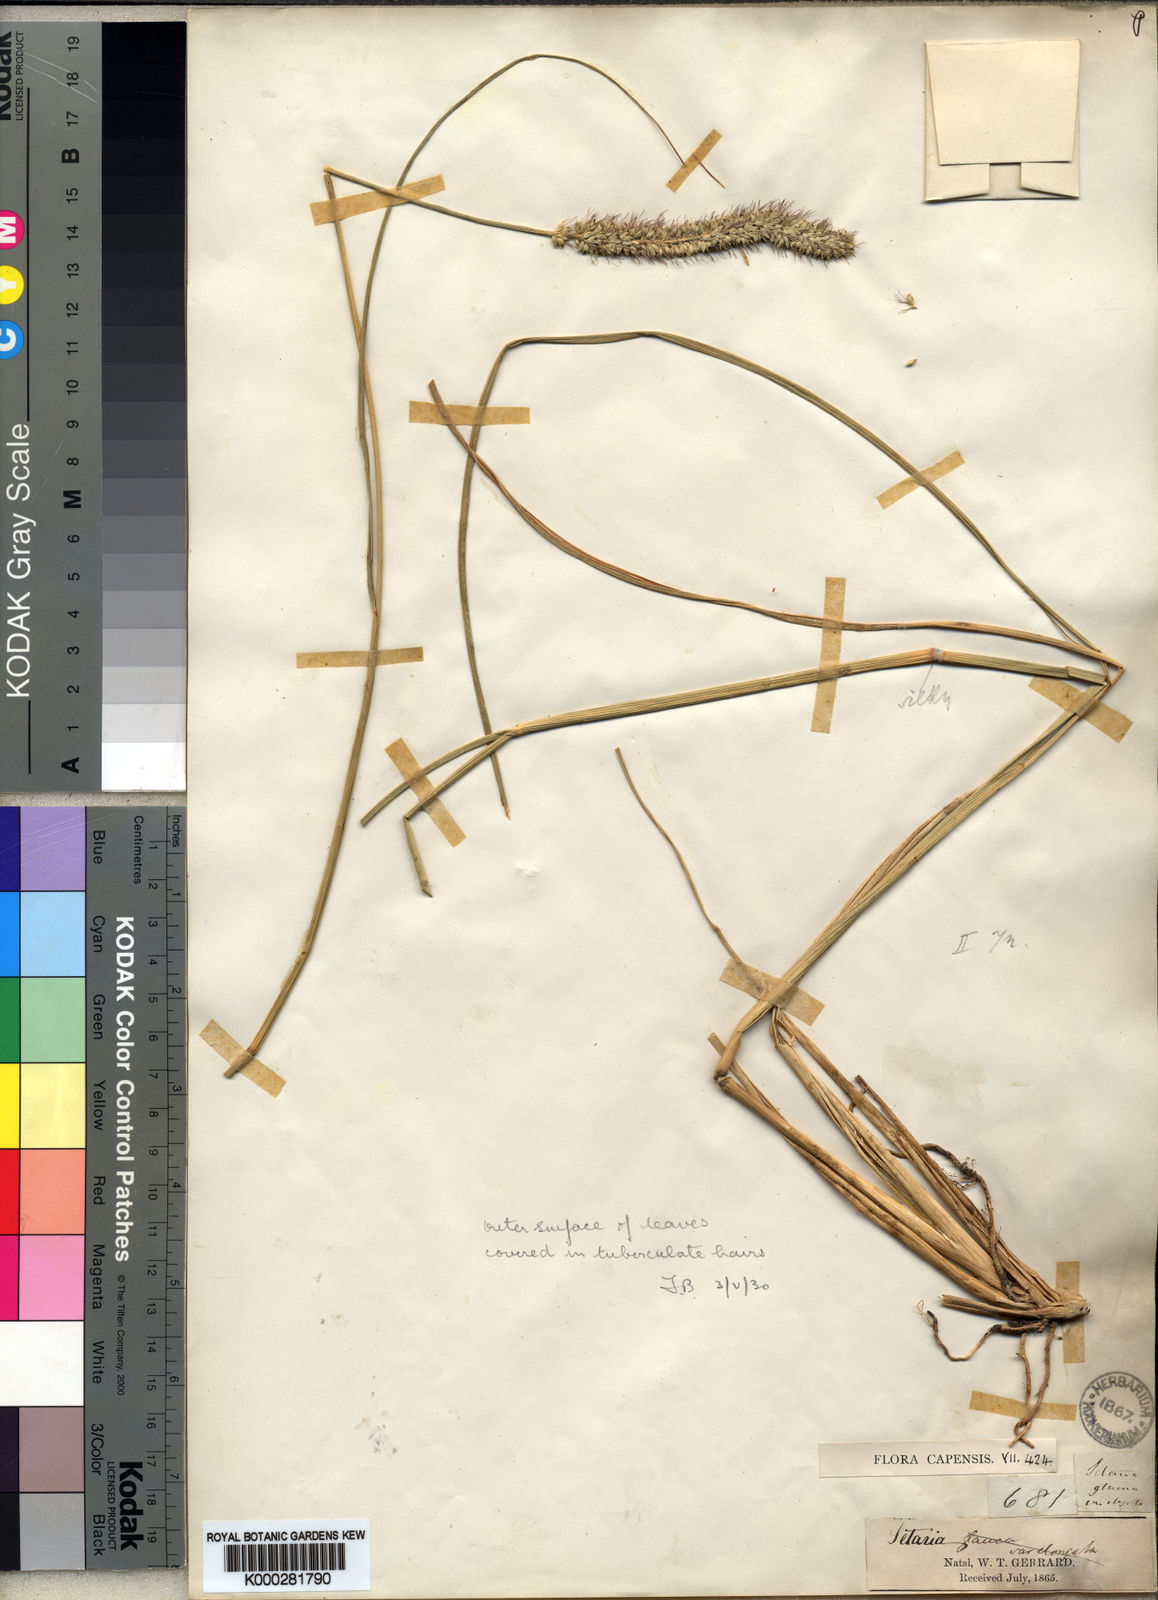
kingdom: Plantae
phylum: Tracheophyta
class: Liliopsida
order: Poales
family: Poaceae
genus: Setaria
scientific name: Setaria incrassata
